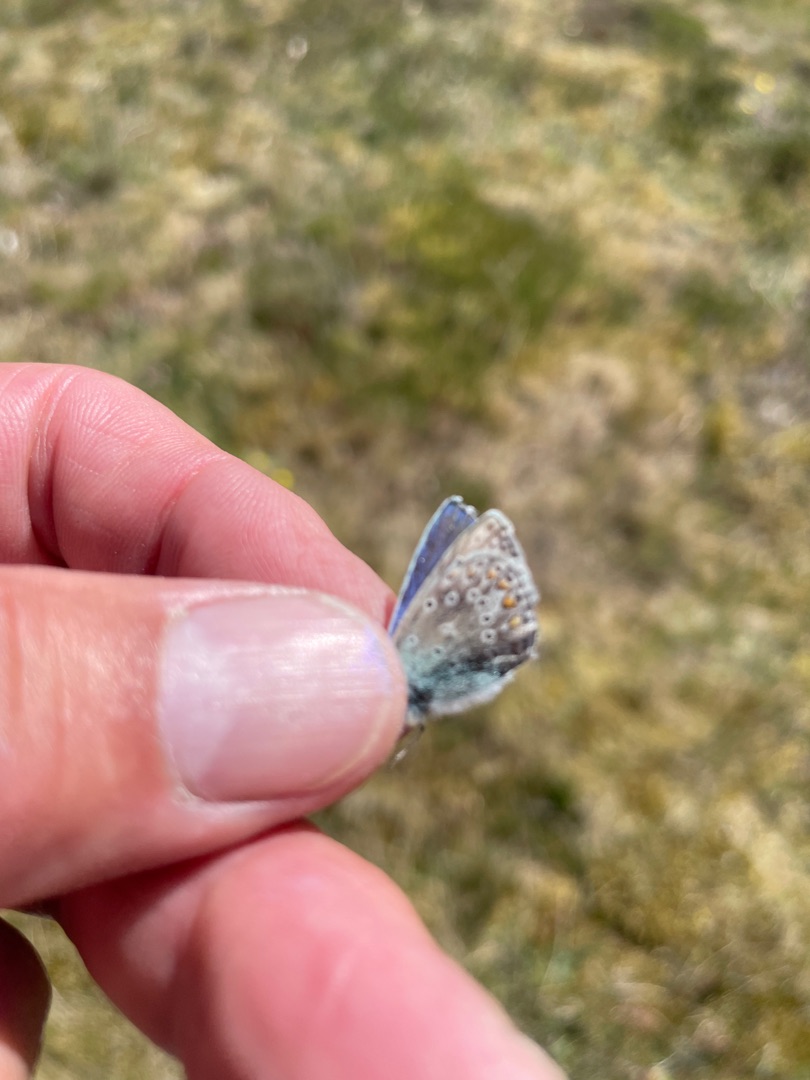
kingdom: Animalia
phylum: Arthropoda
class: Insecta
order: Lepidoptera
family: Lycaenidae
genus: Polyommatus
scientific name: Polyommatus icarus
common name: Almindelig blåfugl
